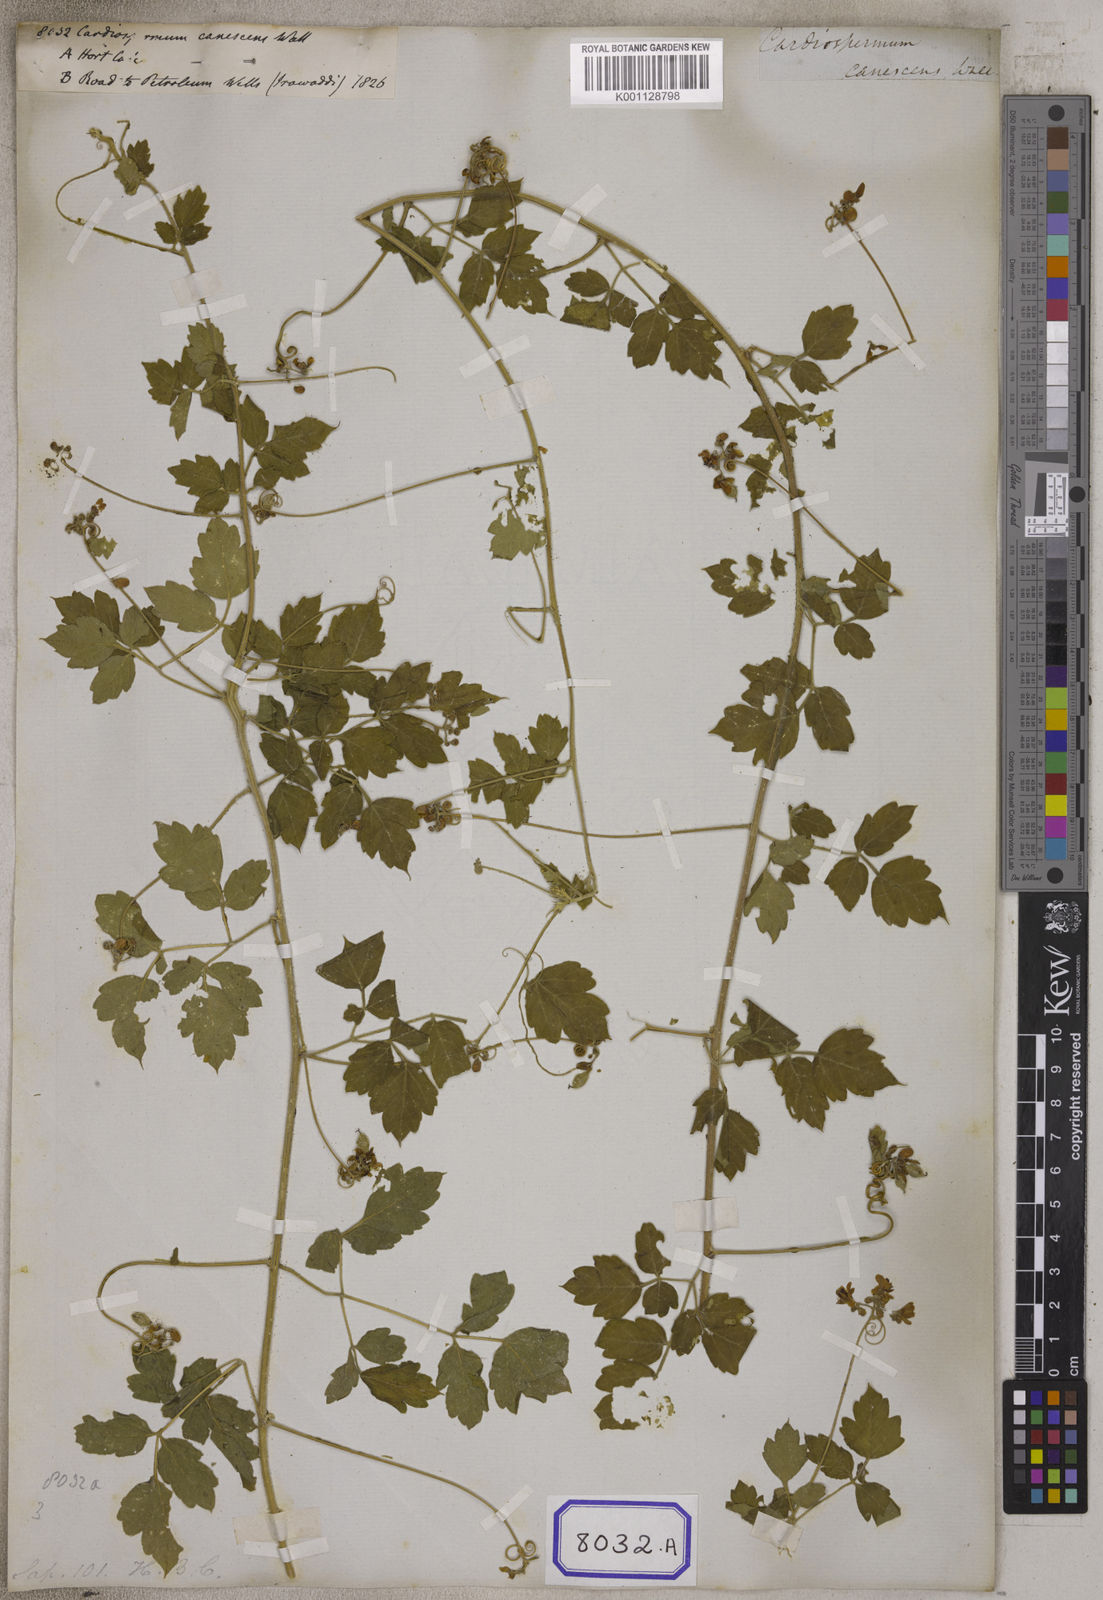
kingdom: Plantae
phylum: Tracheophyta
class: Magnoliopsida
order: Sapindales
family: Sapindaceae
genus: Cardiospermum
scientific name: Cardiospermum corindum
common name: Faux persil
